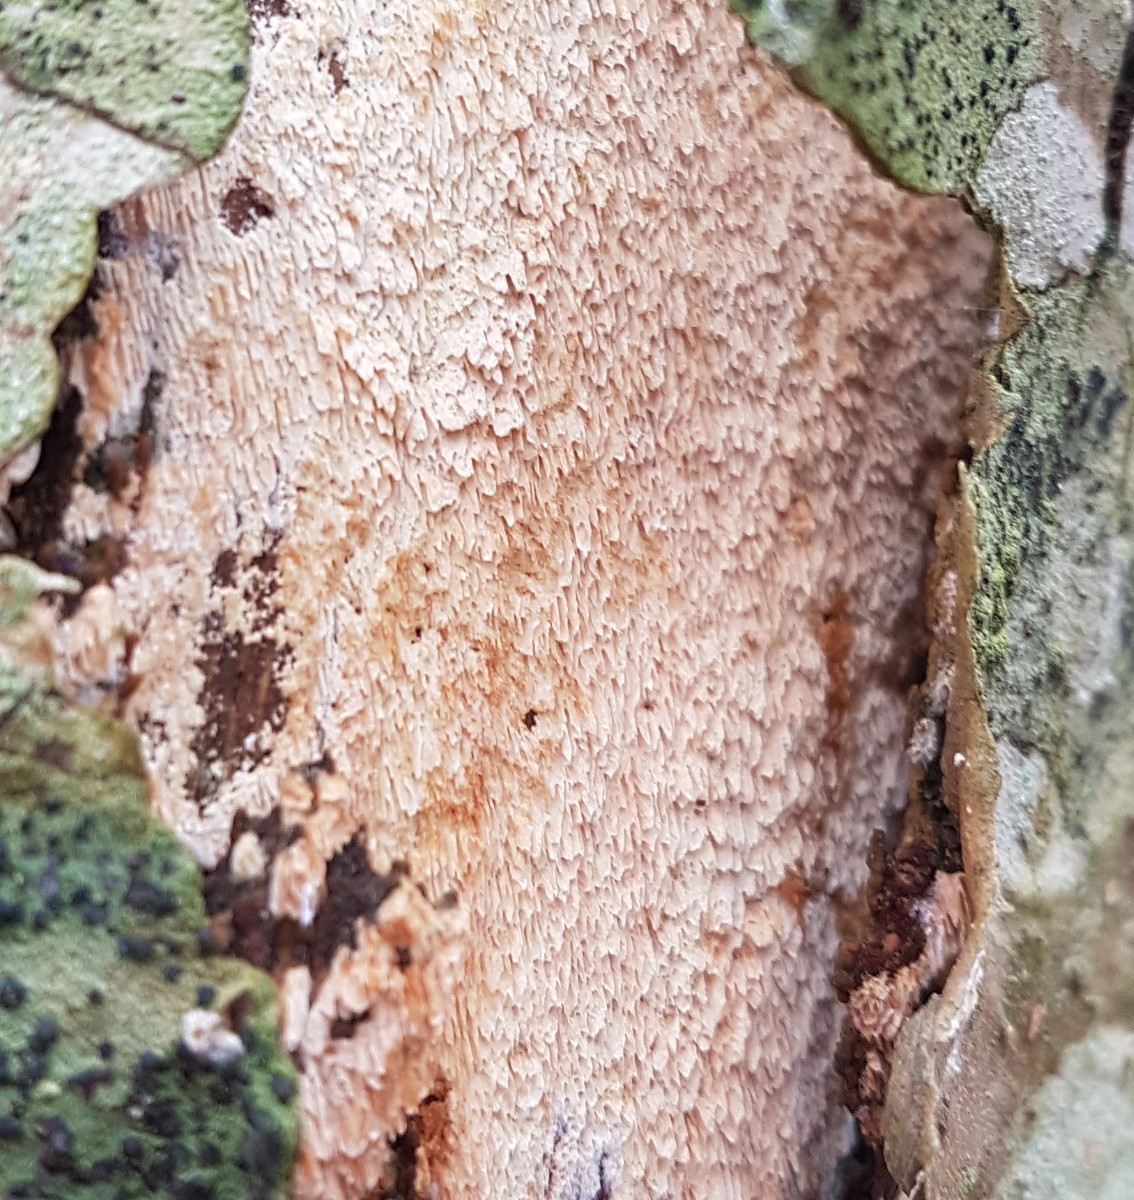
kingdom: Fungi
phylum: Basidiomycota
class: Agaricomycetes
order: Hymenochaetales
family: Schizoporaceae
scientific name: Schizoporaceae
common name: tandsvampfamilien
